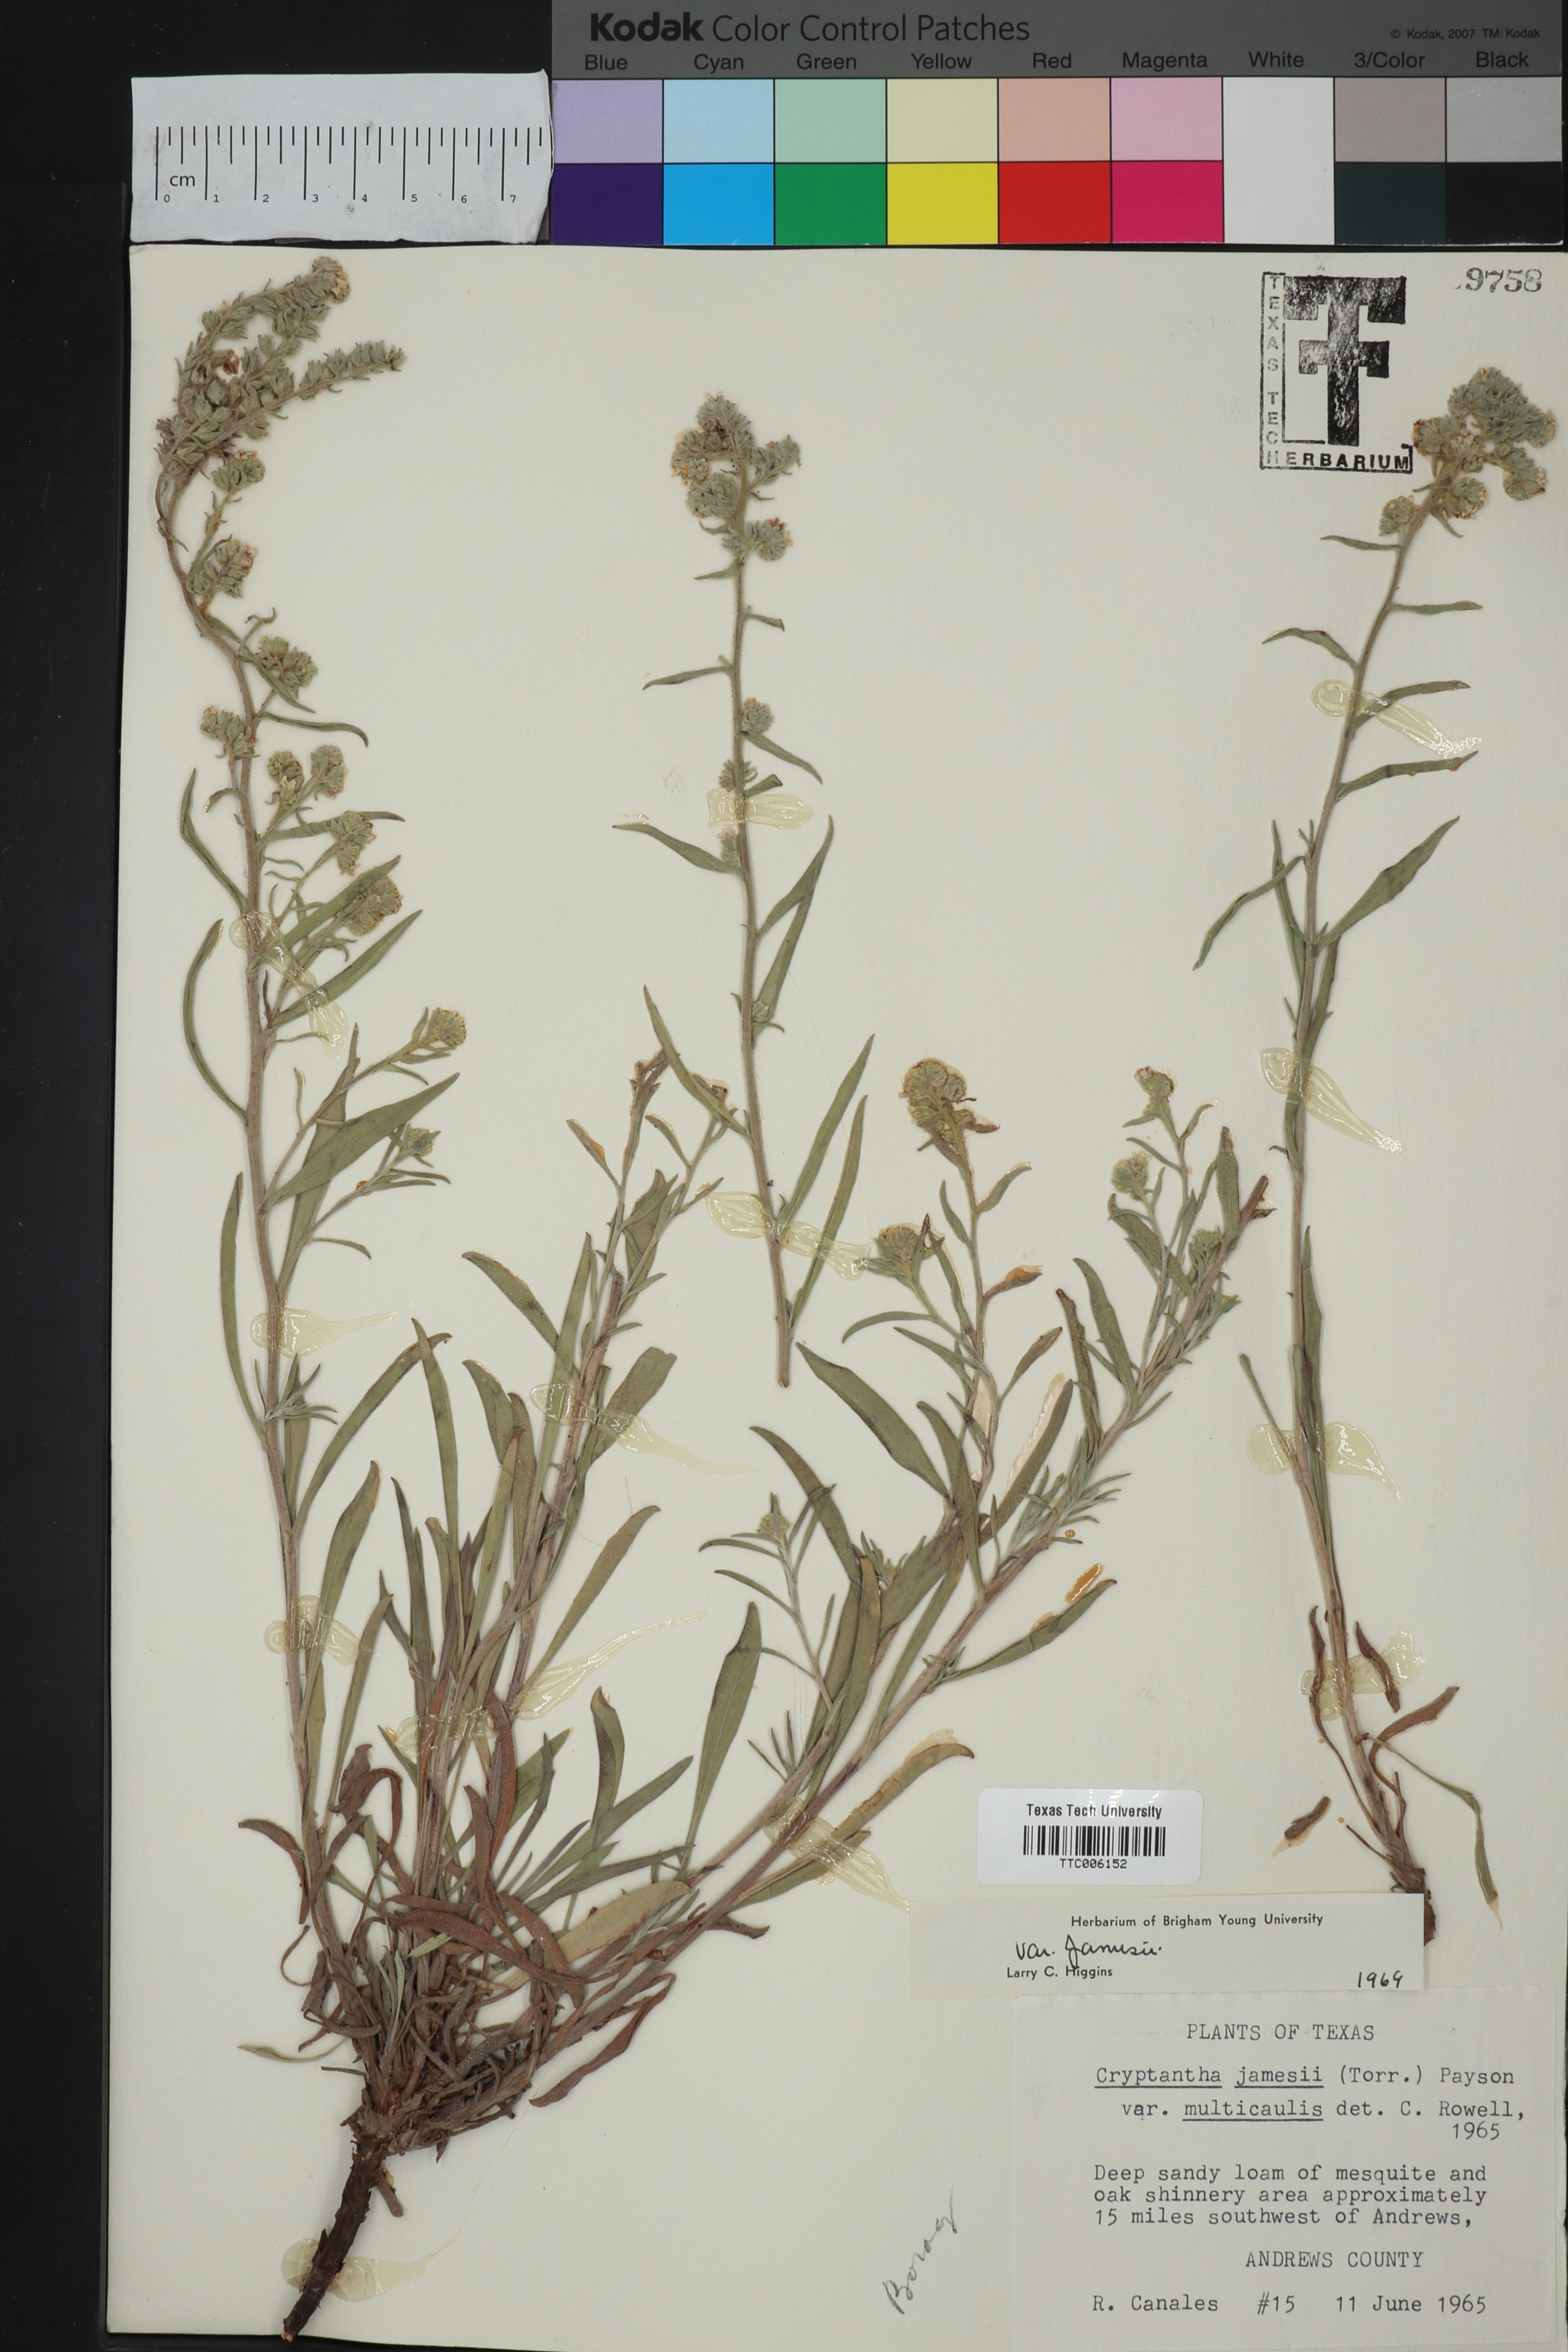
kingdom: Plantae
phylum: Tracheophyta
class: Magnoliopsida
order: Boraginales
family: Boraginaceae
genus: Oreocarya
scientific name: Oreocarya suffruticosa
